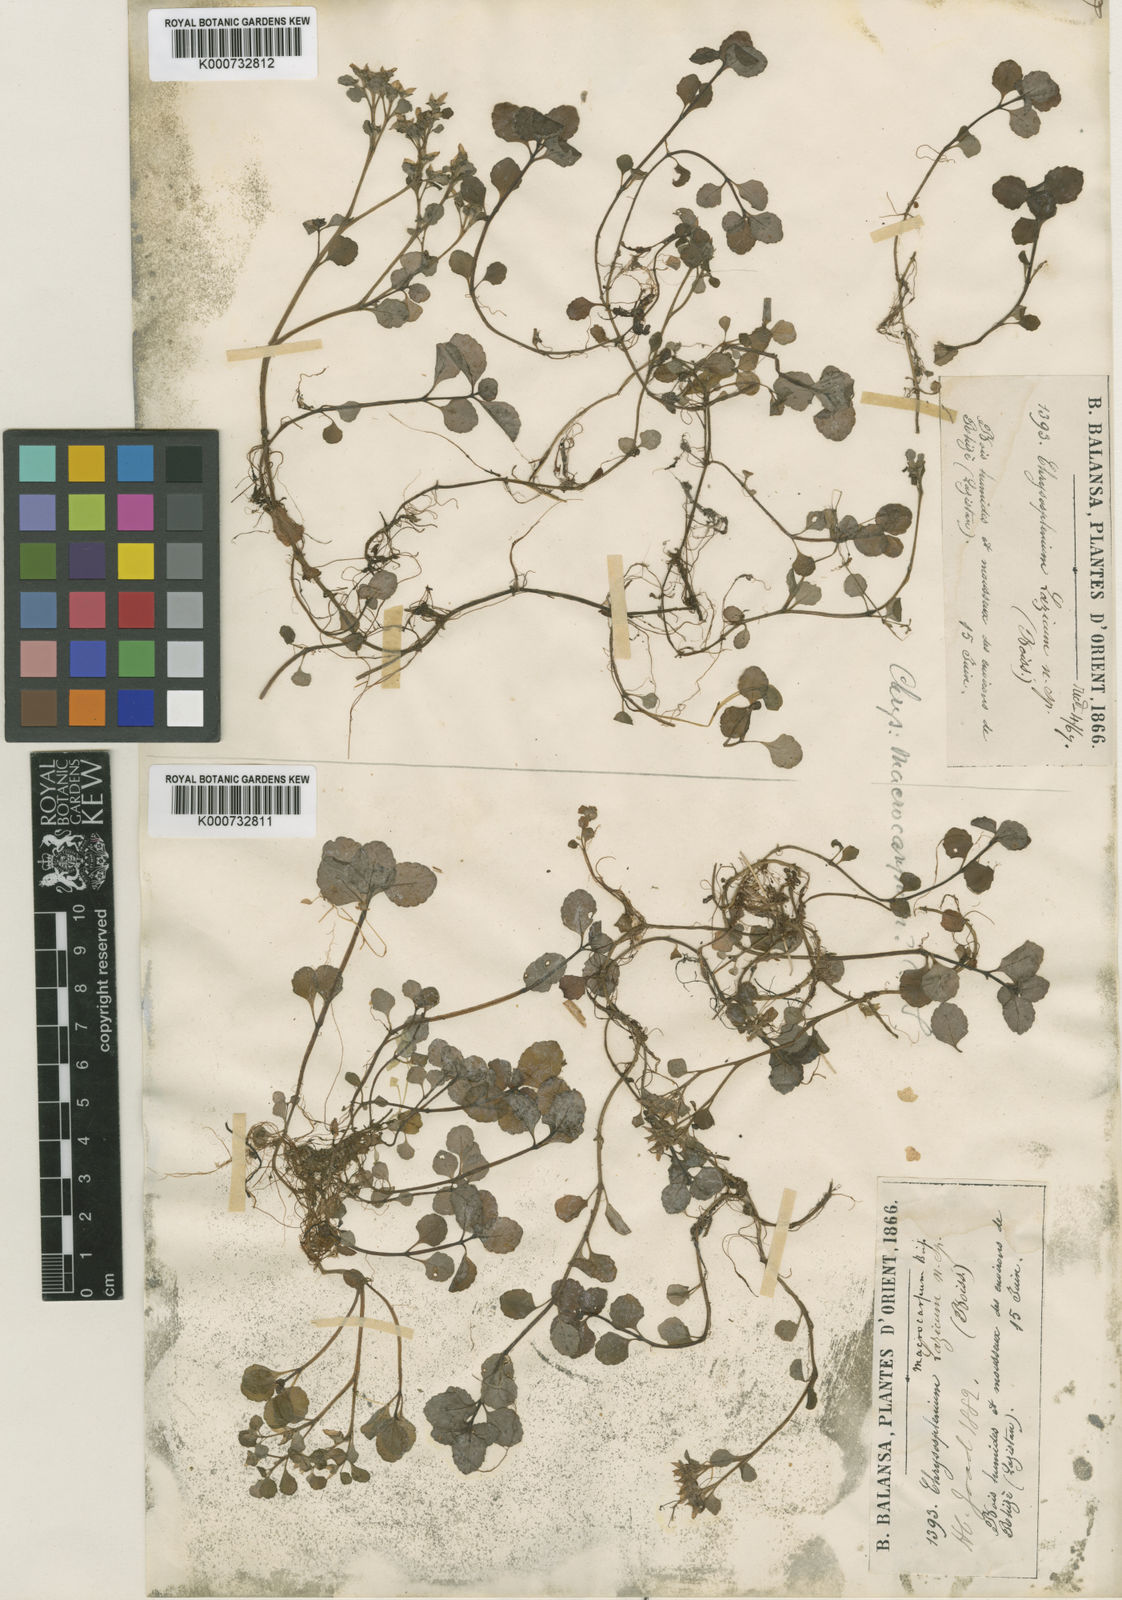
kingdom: Plantae
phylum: Tracheophyta
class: Magnoliopsida
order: Saxifragales
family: Saxifragaceae
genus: Chrysosplenium
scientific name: Chrysosplenium
